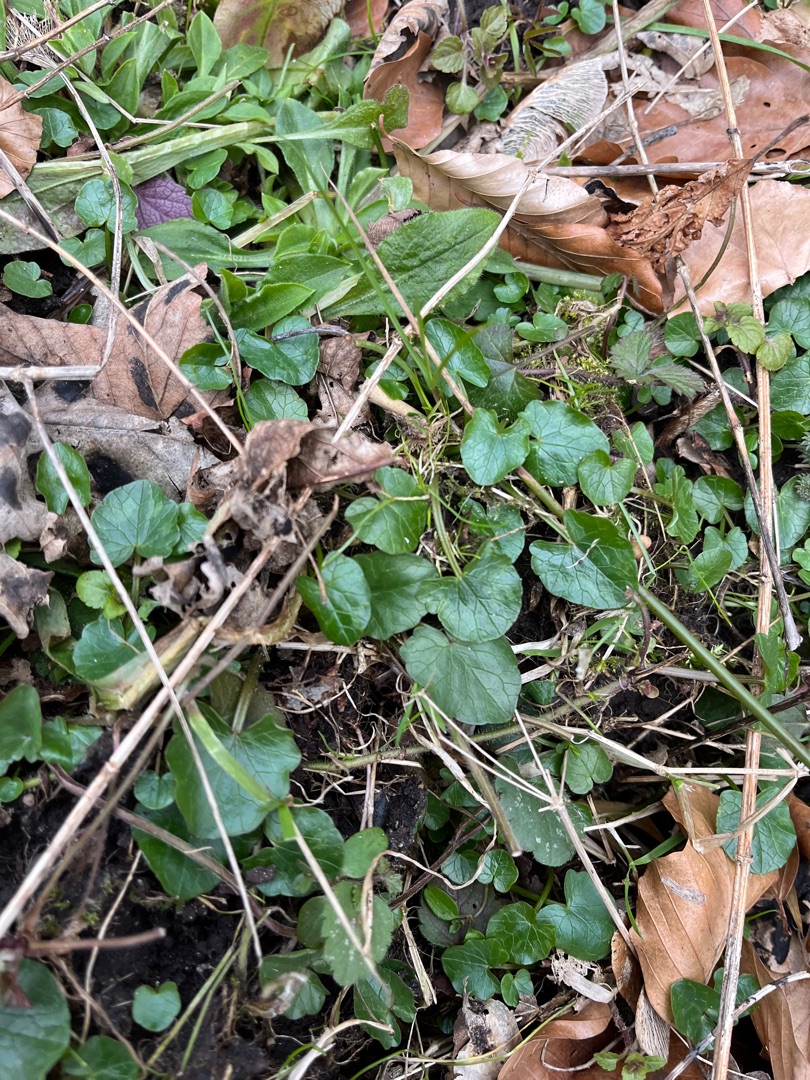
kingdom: Plantae
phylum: Tracheophyta
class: Magnoliopsida
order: Ranunculales
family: Ranunculaceae
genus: Ficaria
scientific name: Ficaria verna
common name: Vorterod
